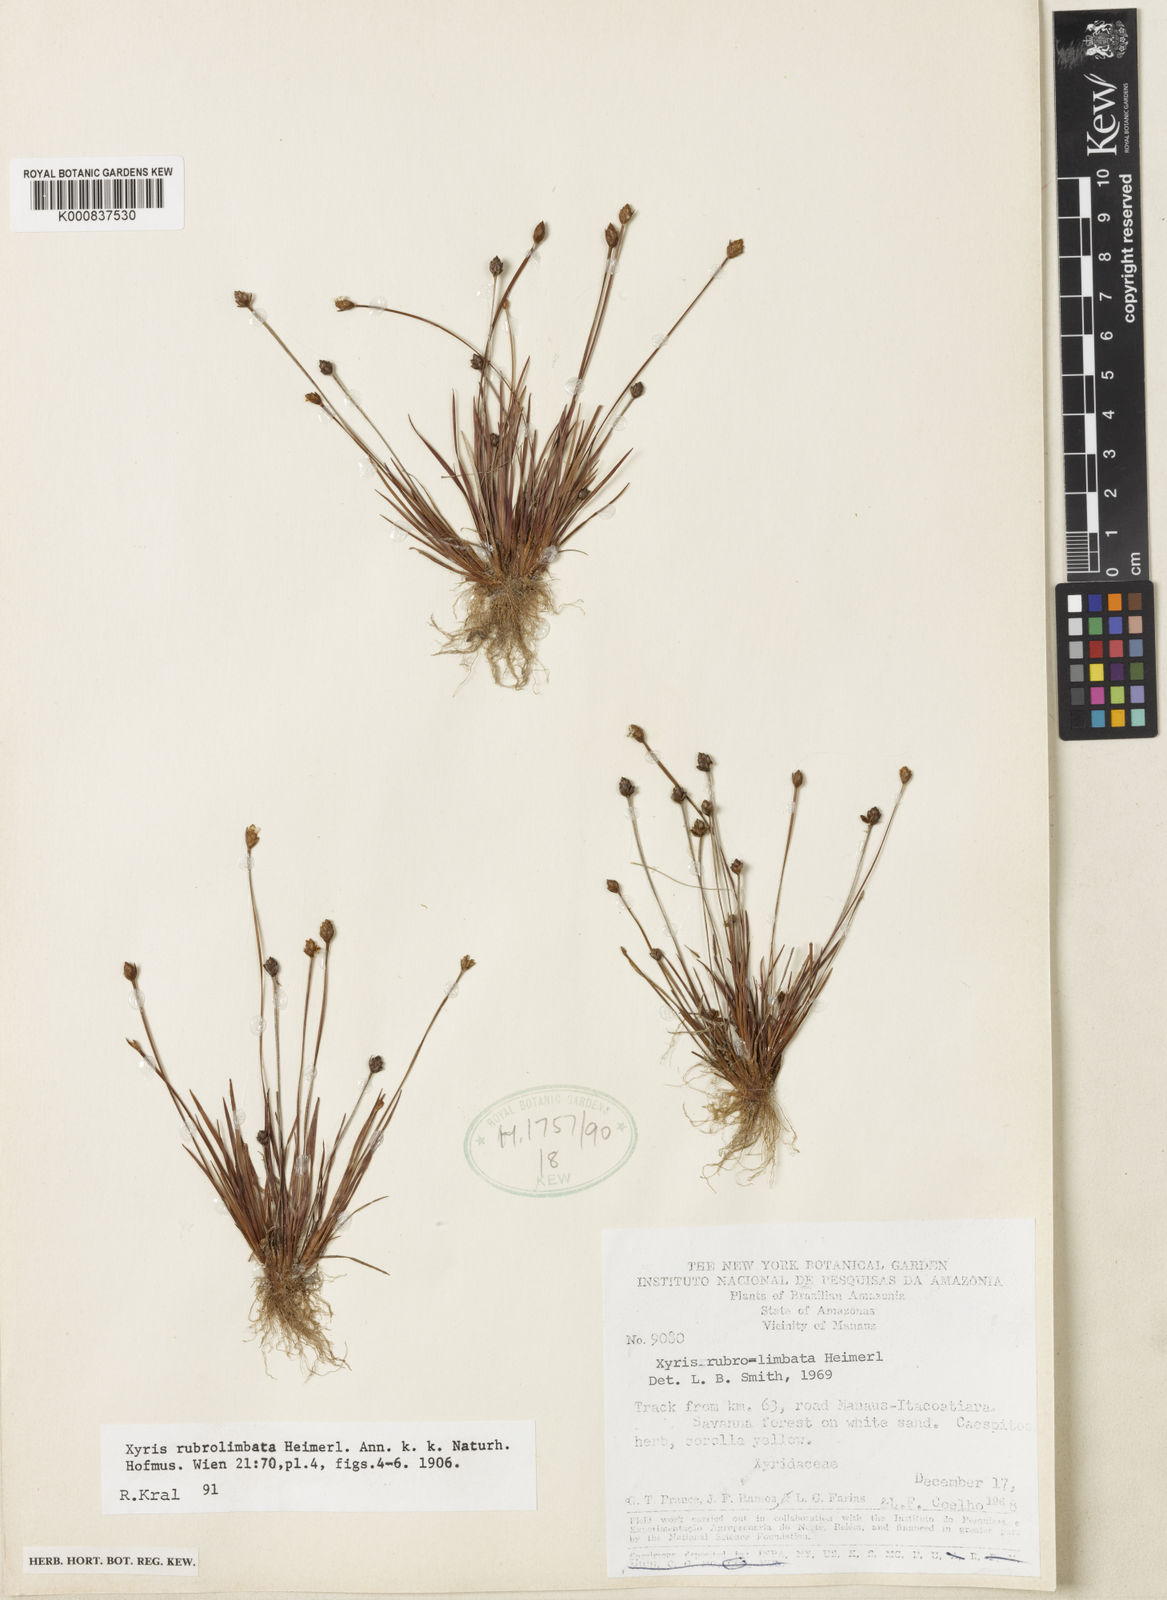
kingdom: Plantae
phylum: Tracheophyta
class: Liliopsida
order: Poales
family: Xyridaceae
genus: Xyris
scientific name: Xyris rubrolimbata
